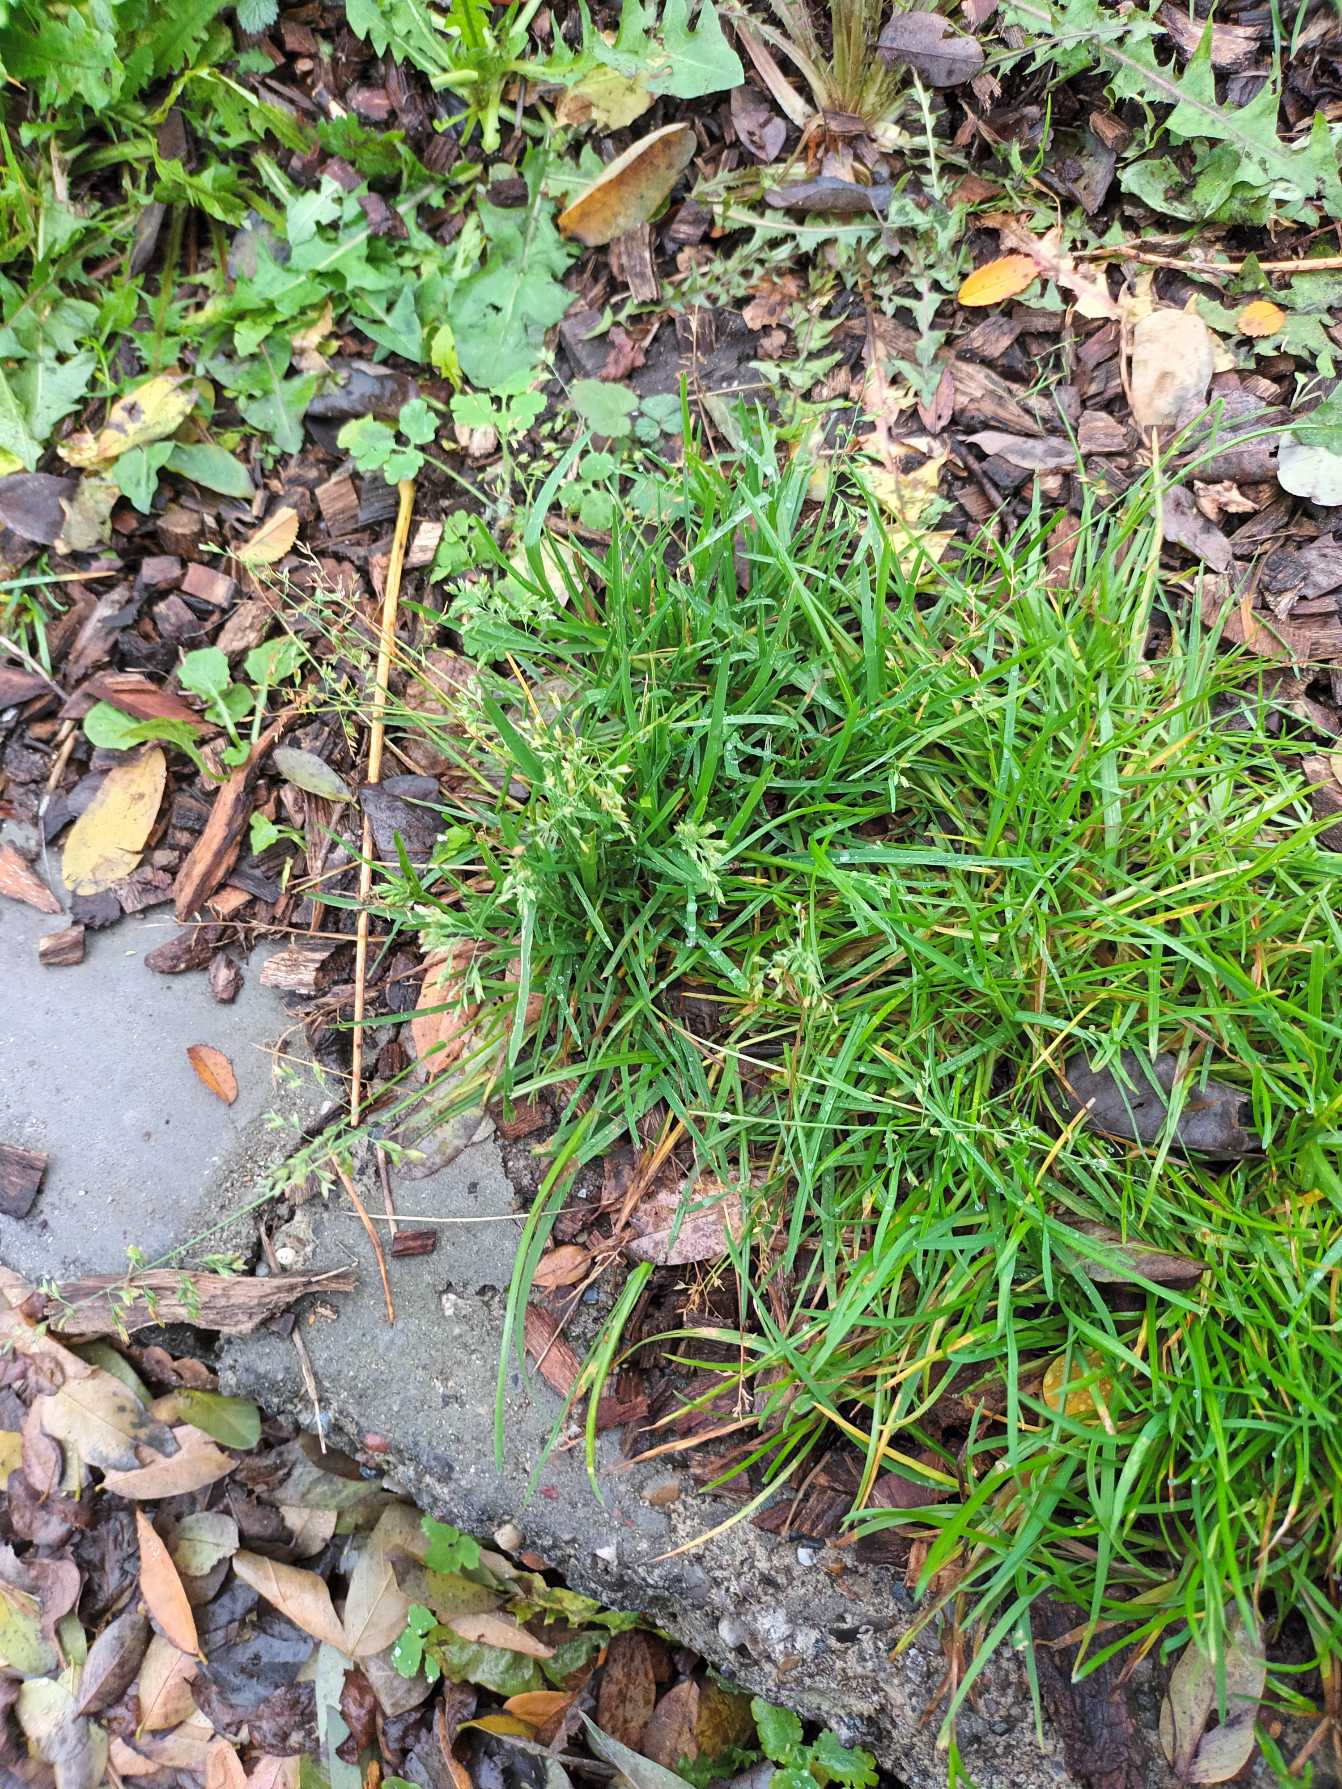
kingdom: Plantae
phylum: Tracheophyta
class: Liliopsida
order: Poales
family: Poaceae
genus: Poa
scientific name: Poa annua
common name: Enårig rapgræs
